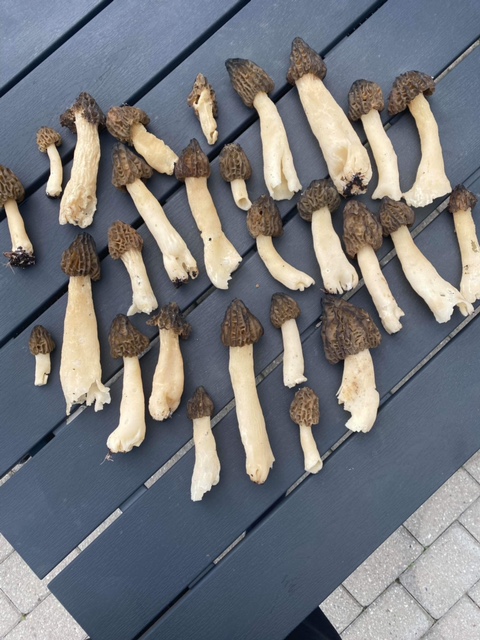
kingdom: Fungi
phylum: Ascomycota
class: Pezizomycetes
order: Pezizales
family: Morchellaceae
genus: Morchella
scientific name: Morchella semilibera
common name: hætte-morkel
